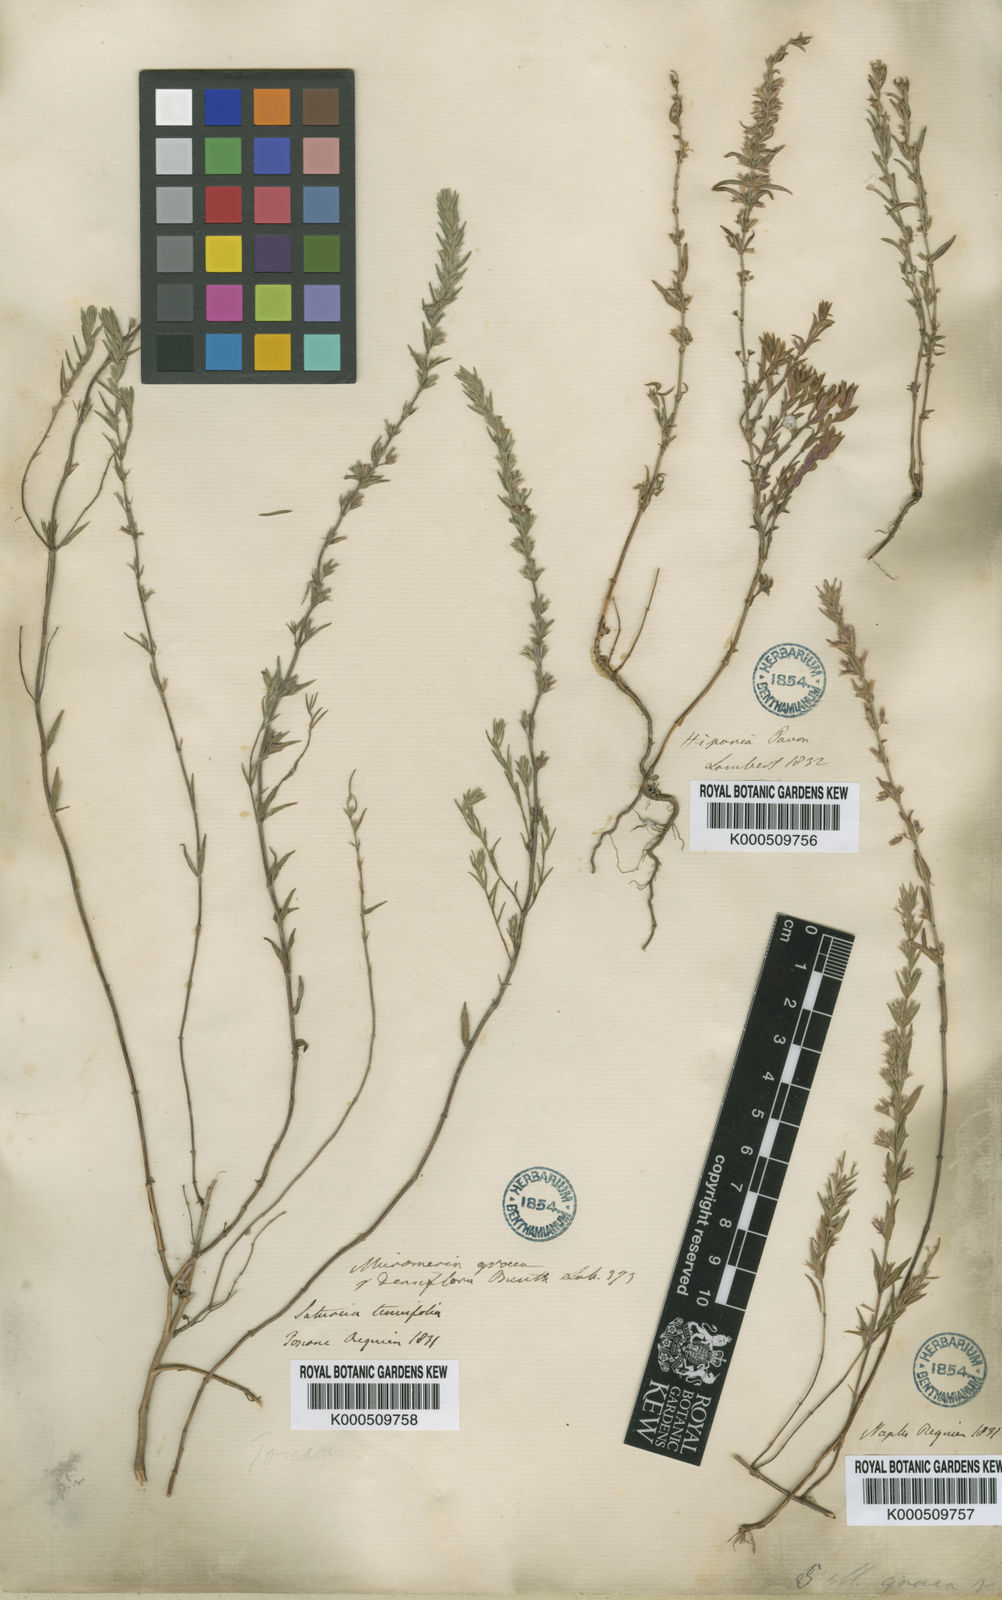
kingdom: Plantae
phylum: Tracheophyta
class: Magnoliopsida
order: Lamiales
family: Lamiaceae
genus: Micromeria
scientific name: Micromeria
